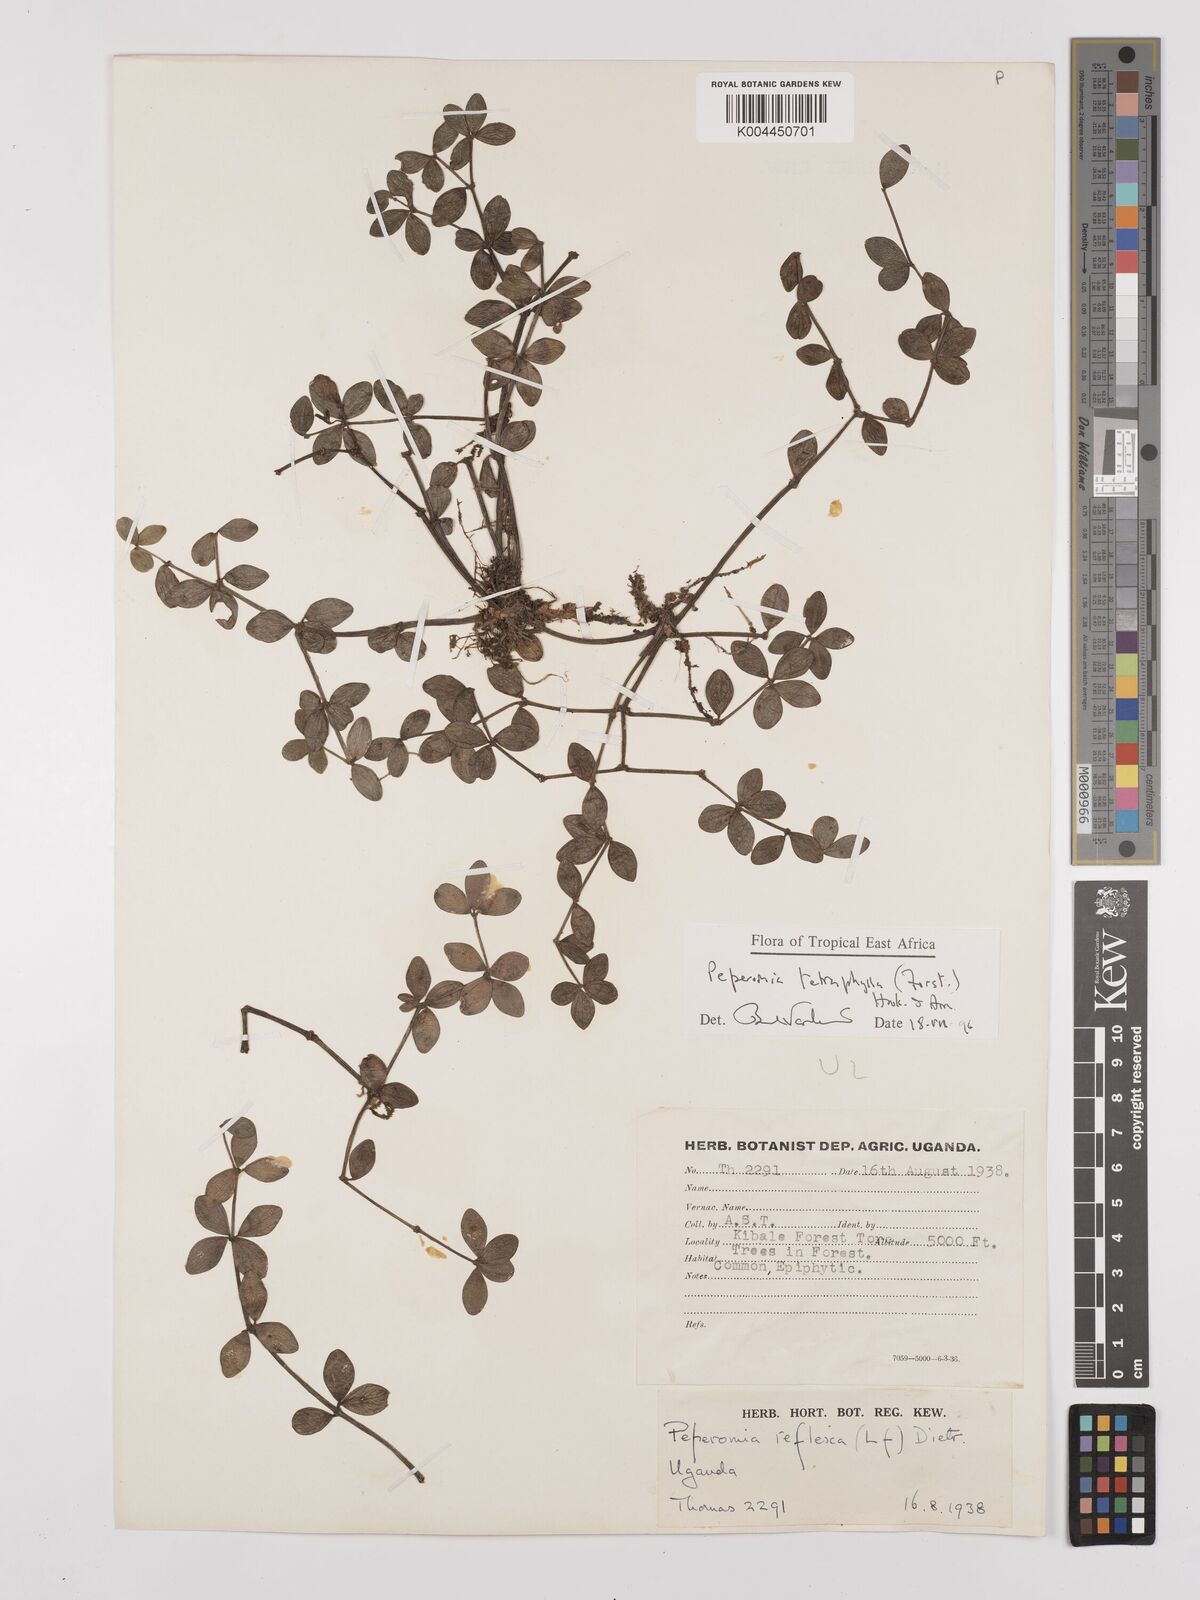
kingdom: Plantae
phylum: Tracheophyta
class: Magnoliopsida
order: Piperales
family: Piperaceae
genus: Peperomia
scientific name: Peperomia tetraphylla
